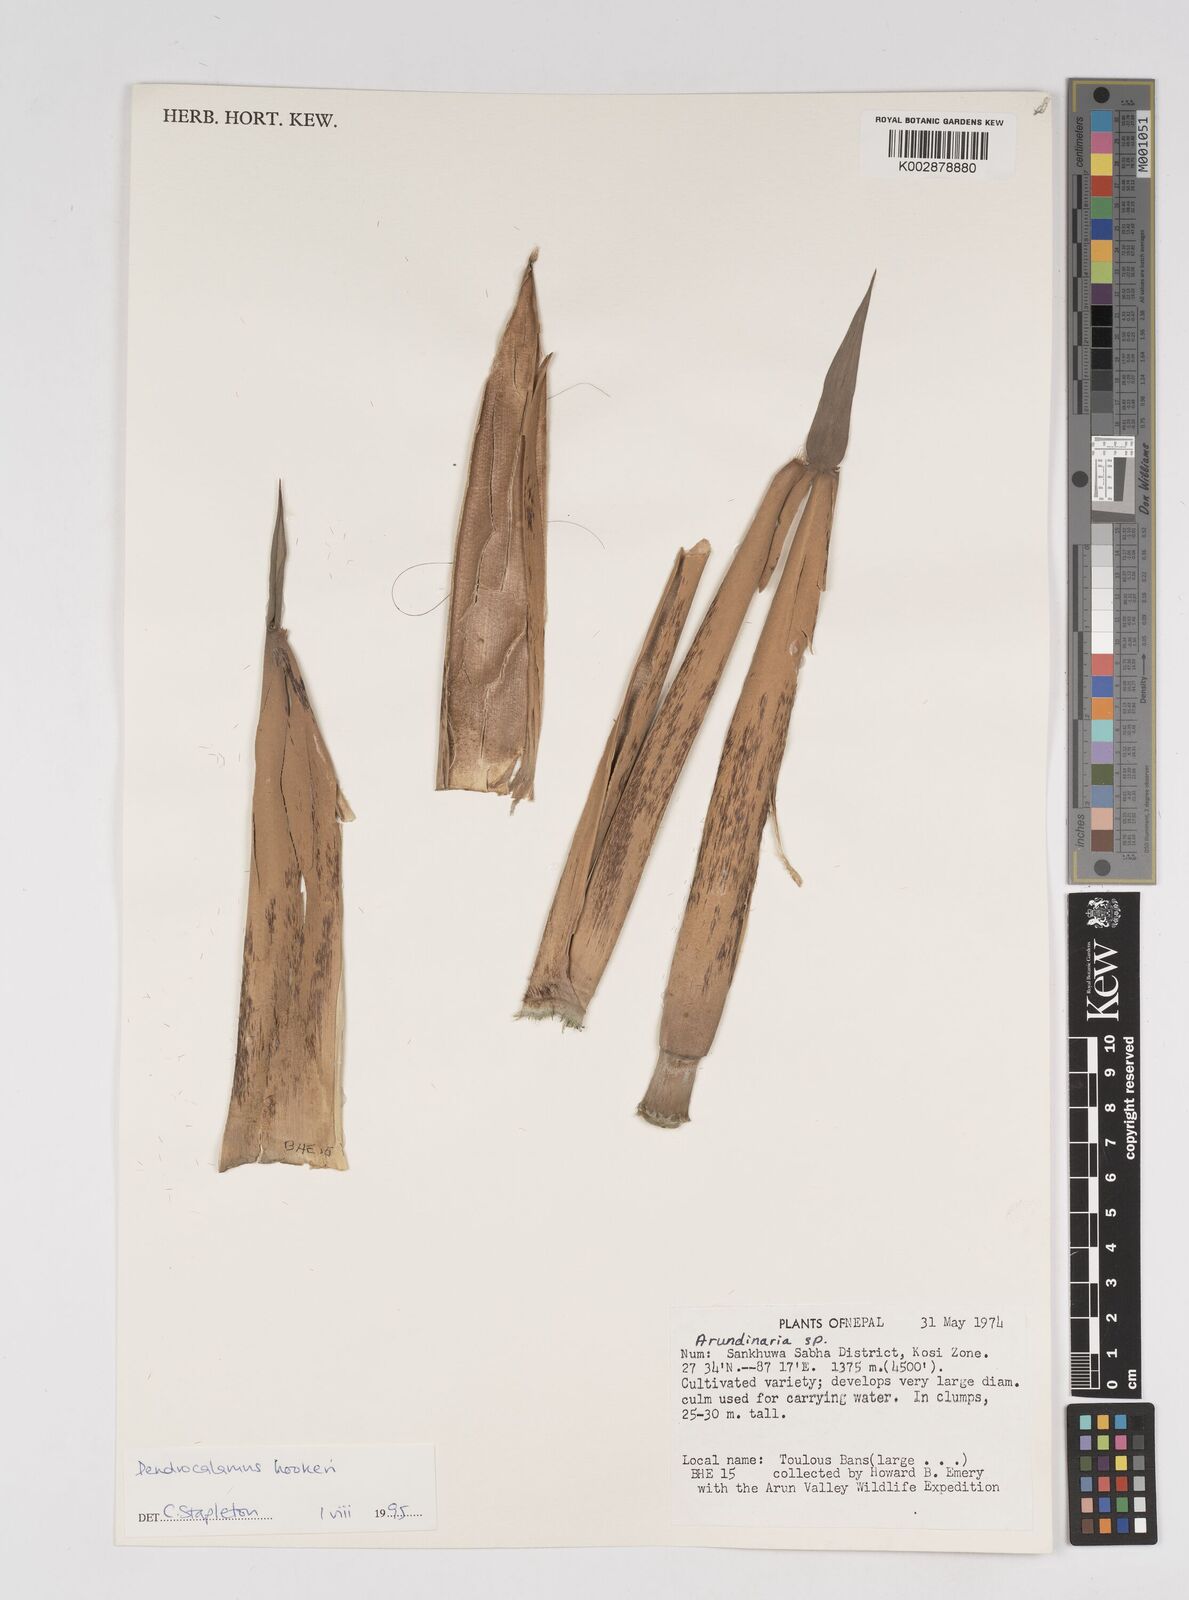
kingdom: Plantae
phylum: Tracheophyta
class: Liliopsida
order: Poales
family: Poaceae
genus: Dendrocalamus
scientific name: Dendrocalamus hookeri
